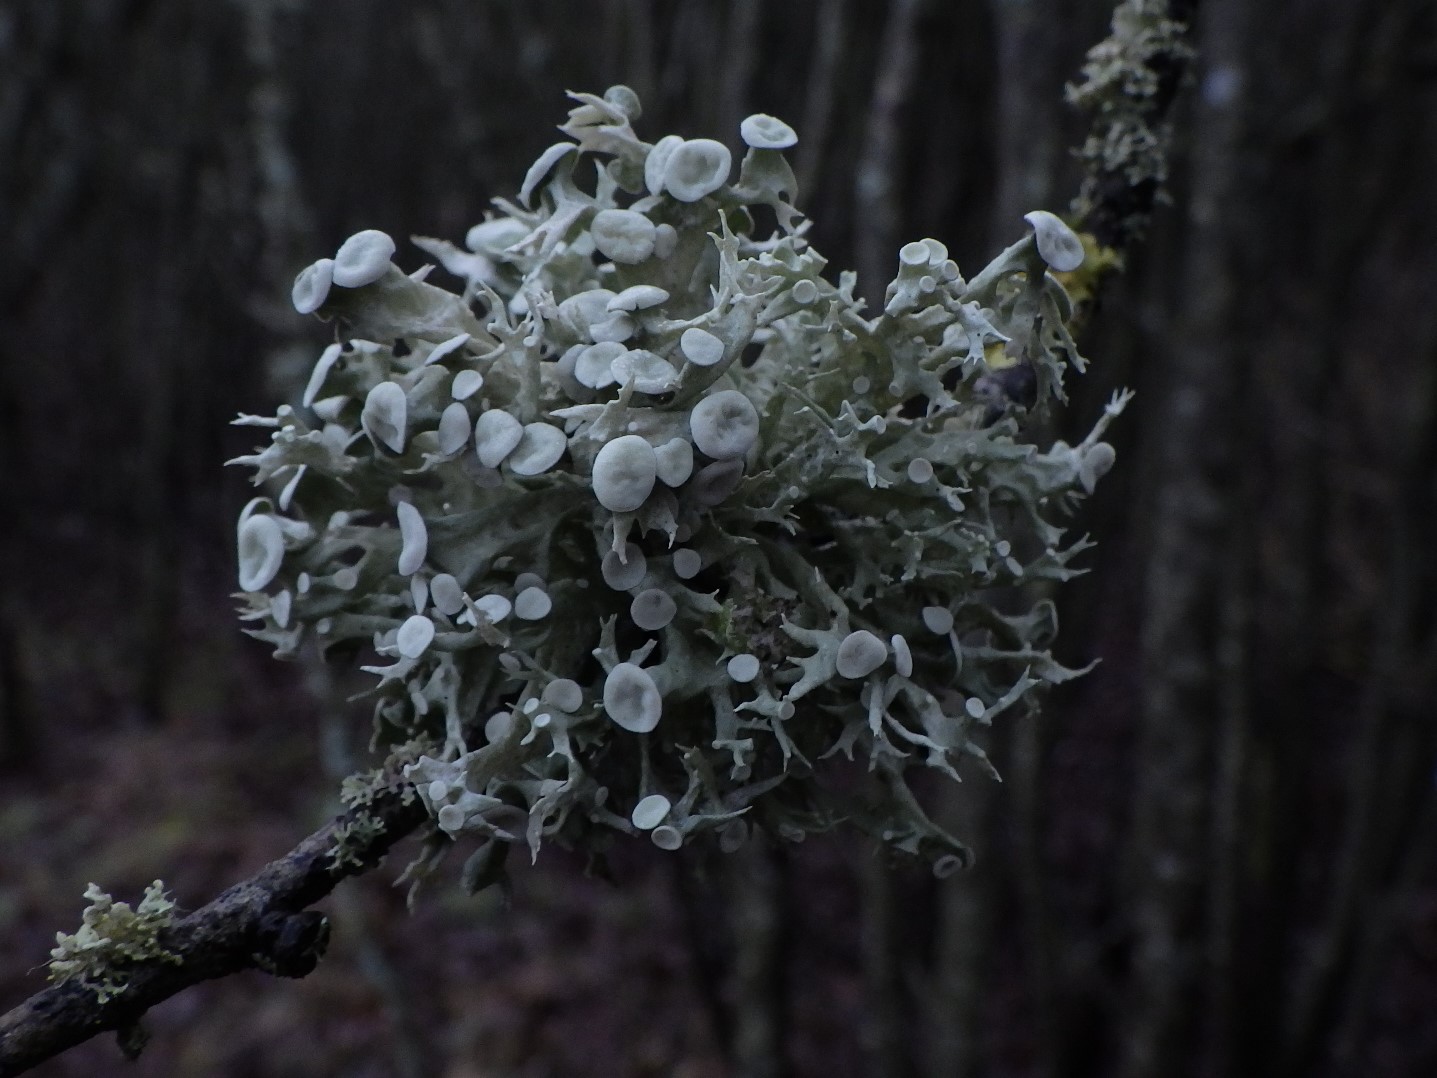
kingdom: Fungi
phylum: Ascomycota
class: Lecanoromycetes
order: Lecanorales
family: Ramalinaceae
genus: Ramalina
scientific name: Ramalina fastigiata
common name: tue-grenlav
